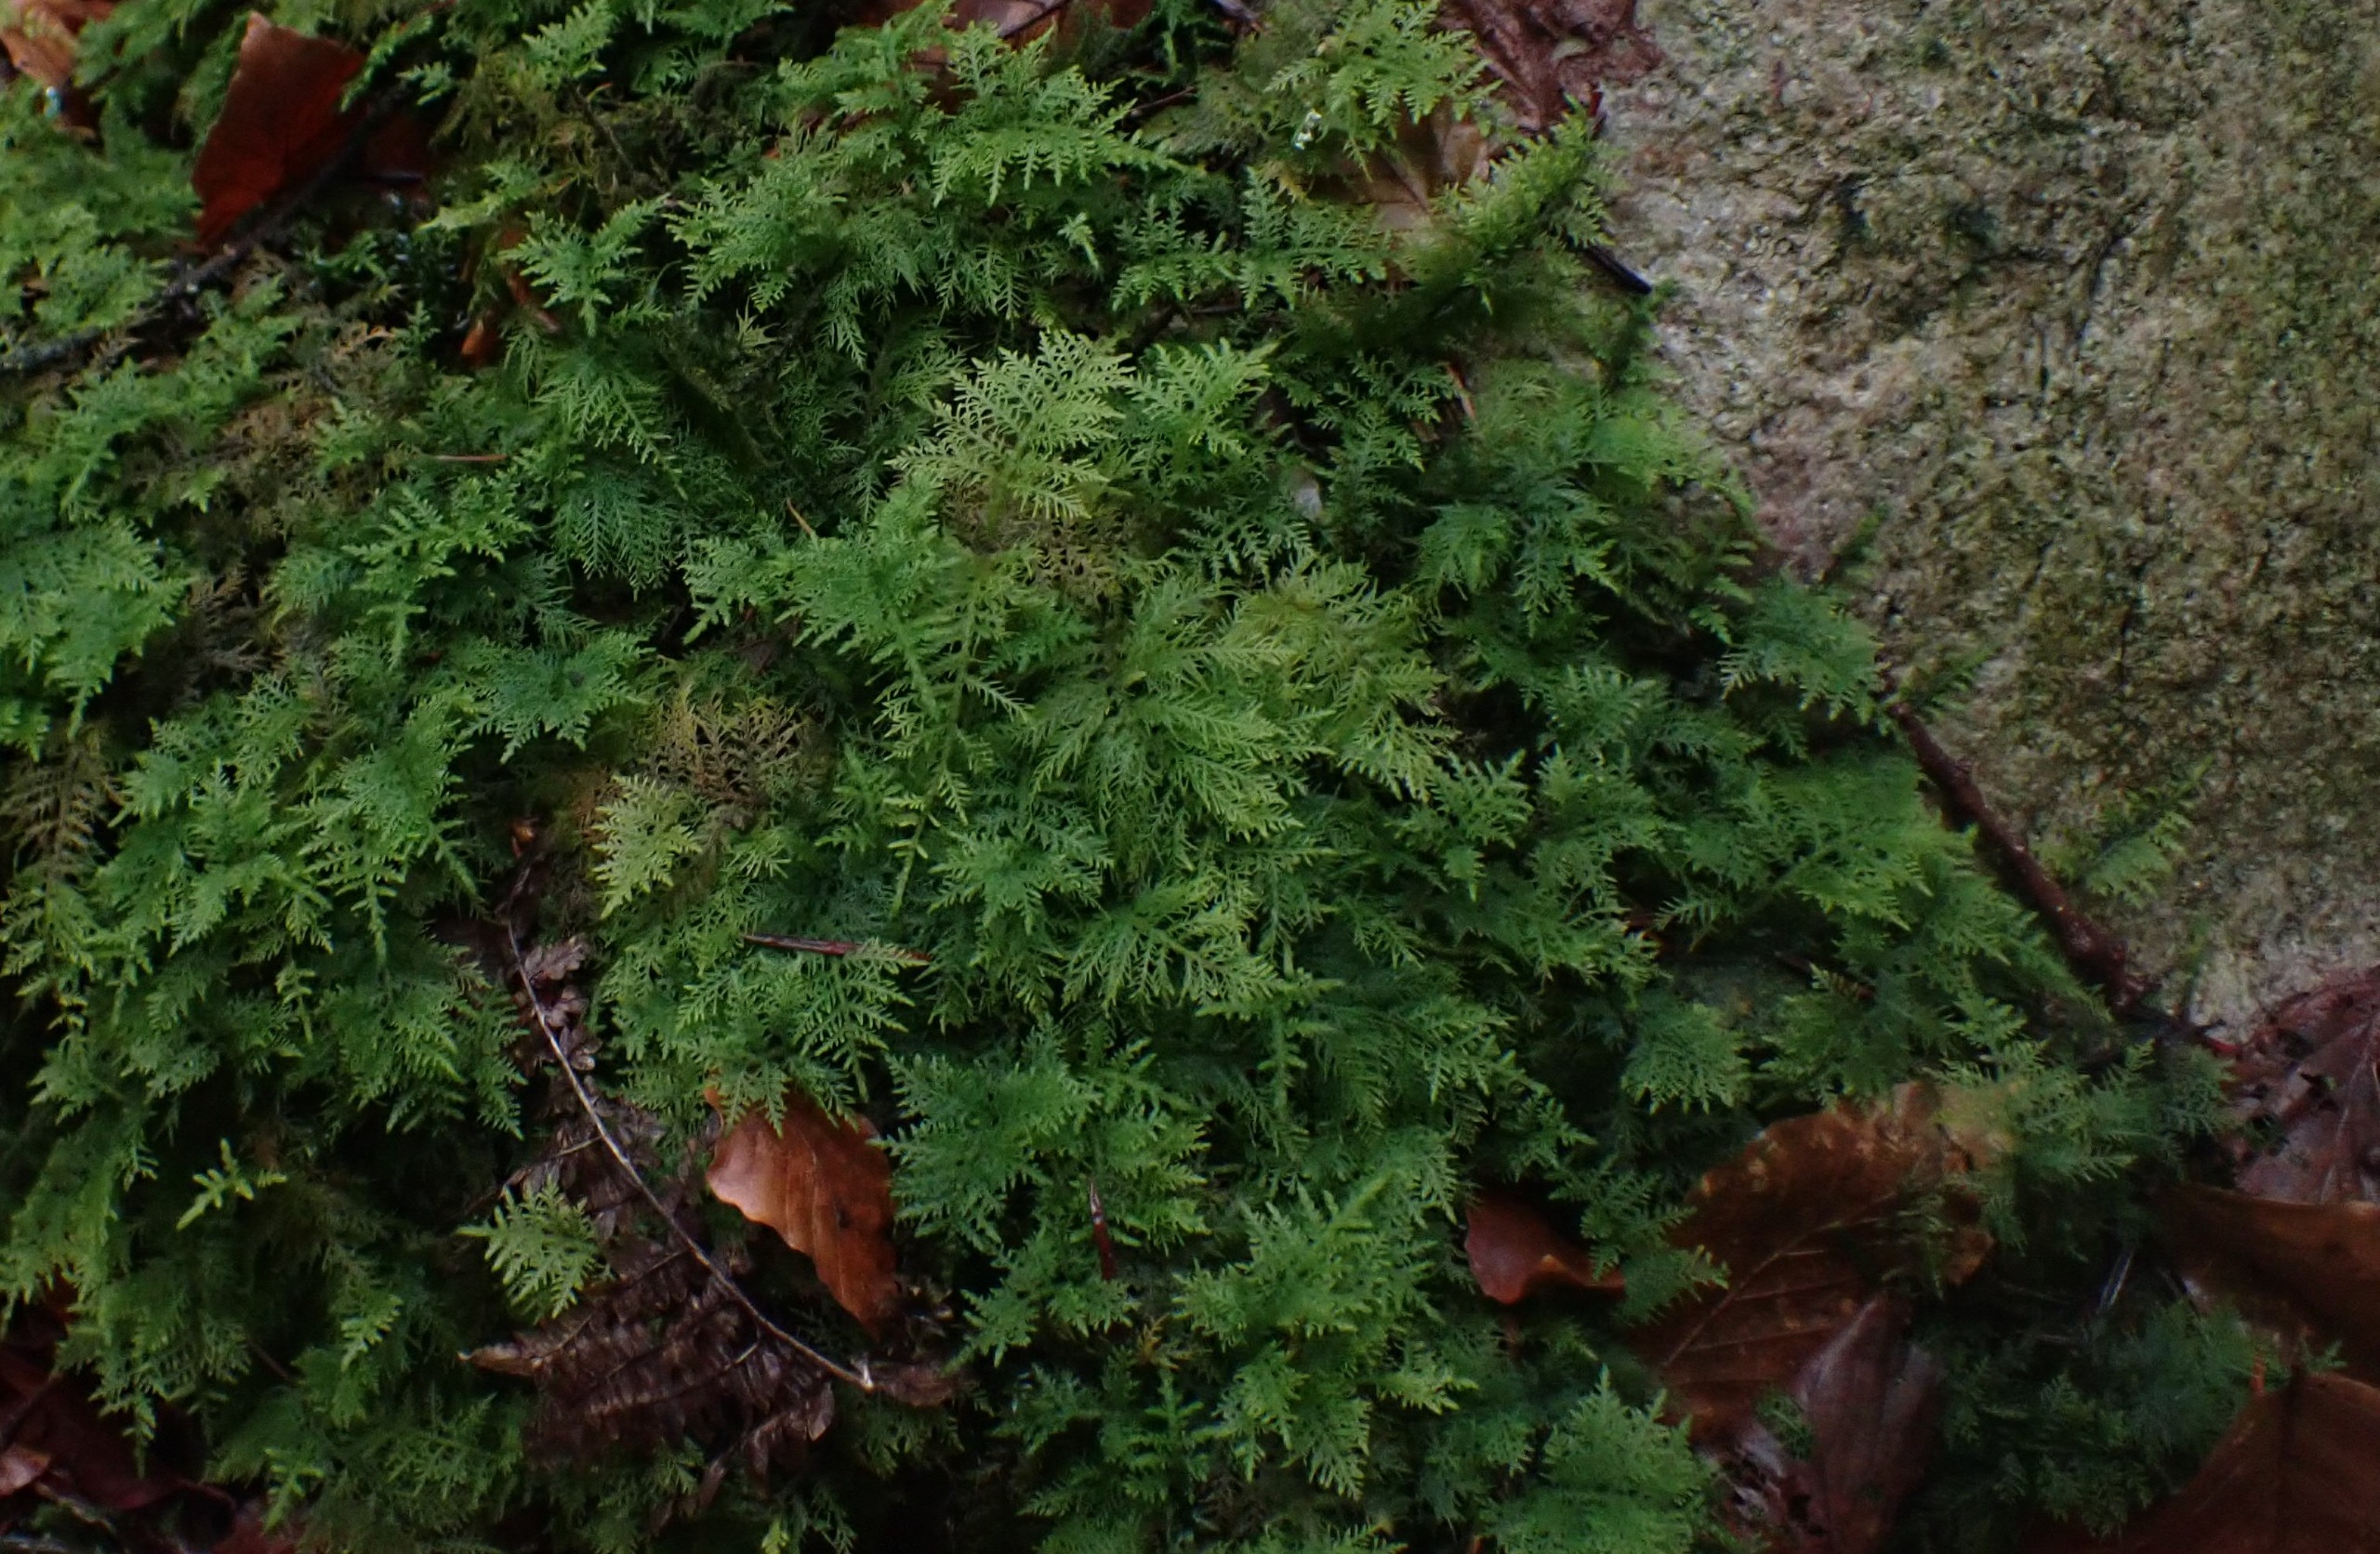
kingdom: Plantae
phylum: Bryophyta
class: Bryopsida
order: Hypnales
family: Thuidiaceae
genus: Thuidium
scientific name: Thuidium tamariscinum
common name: Pryd-bregnemos
